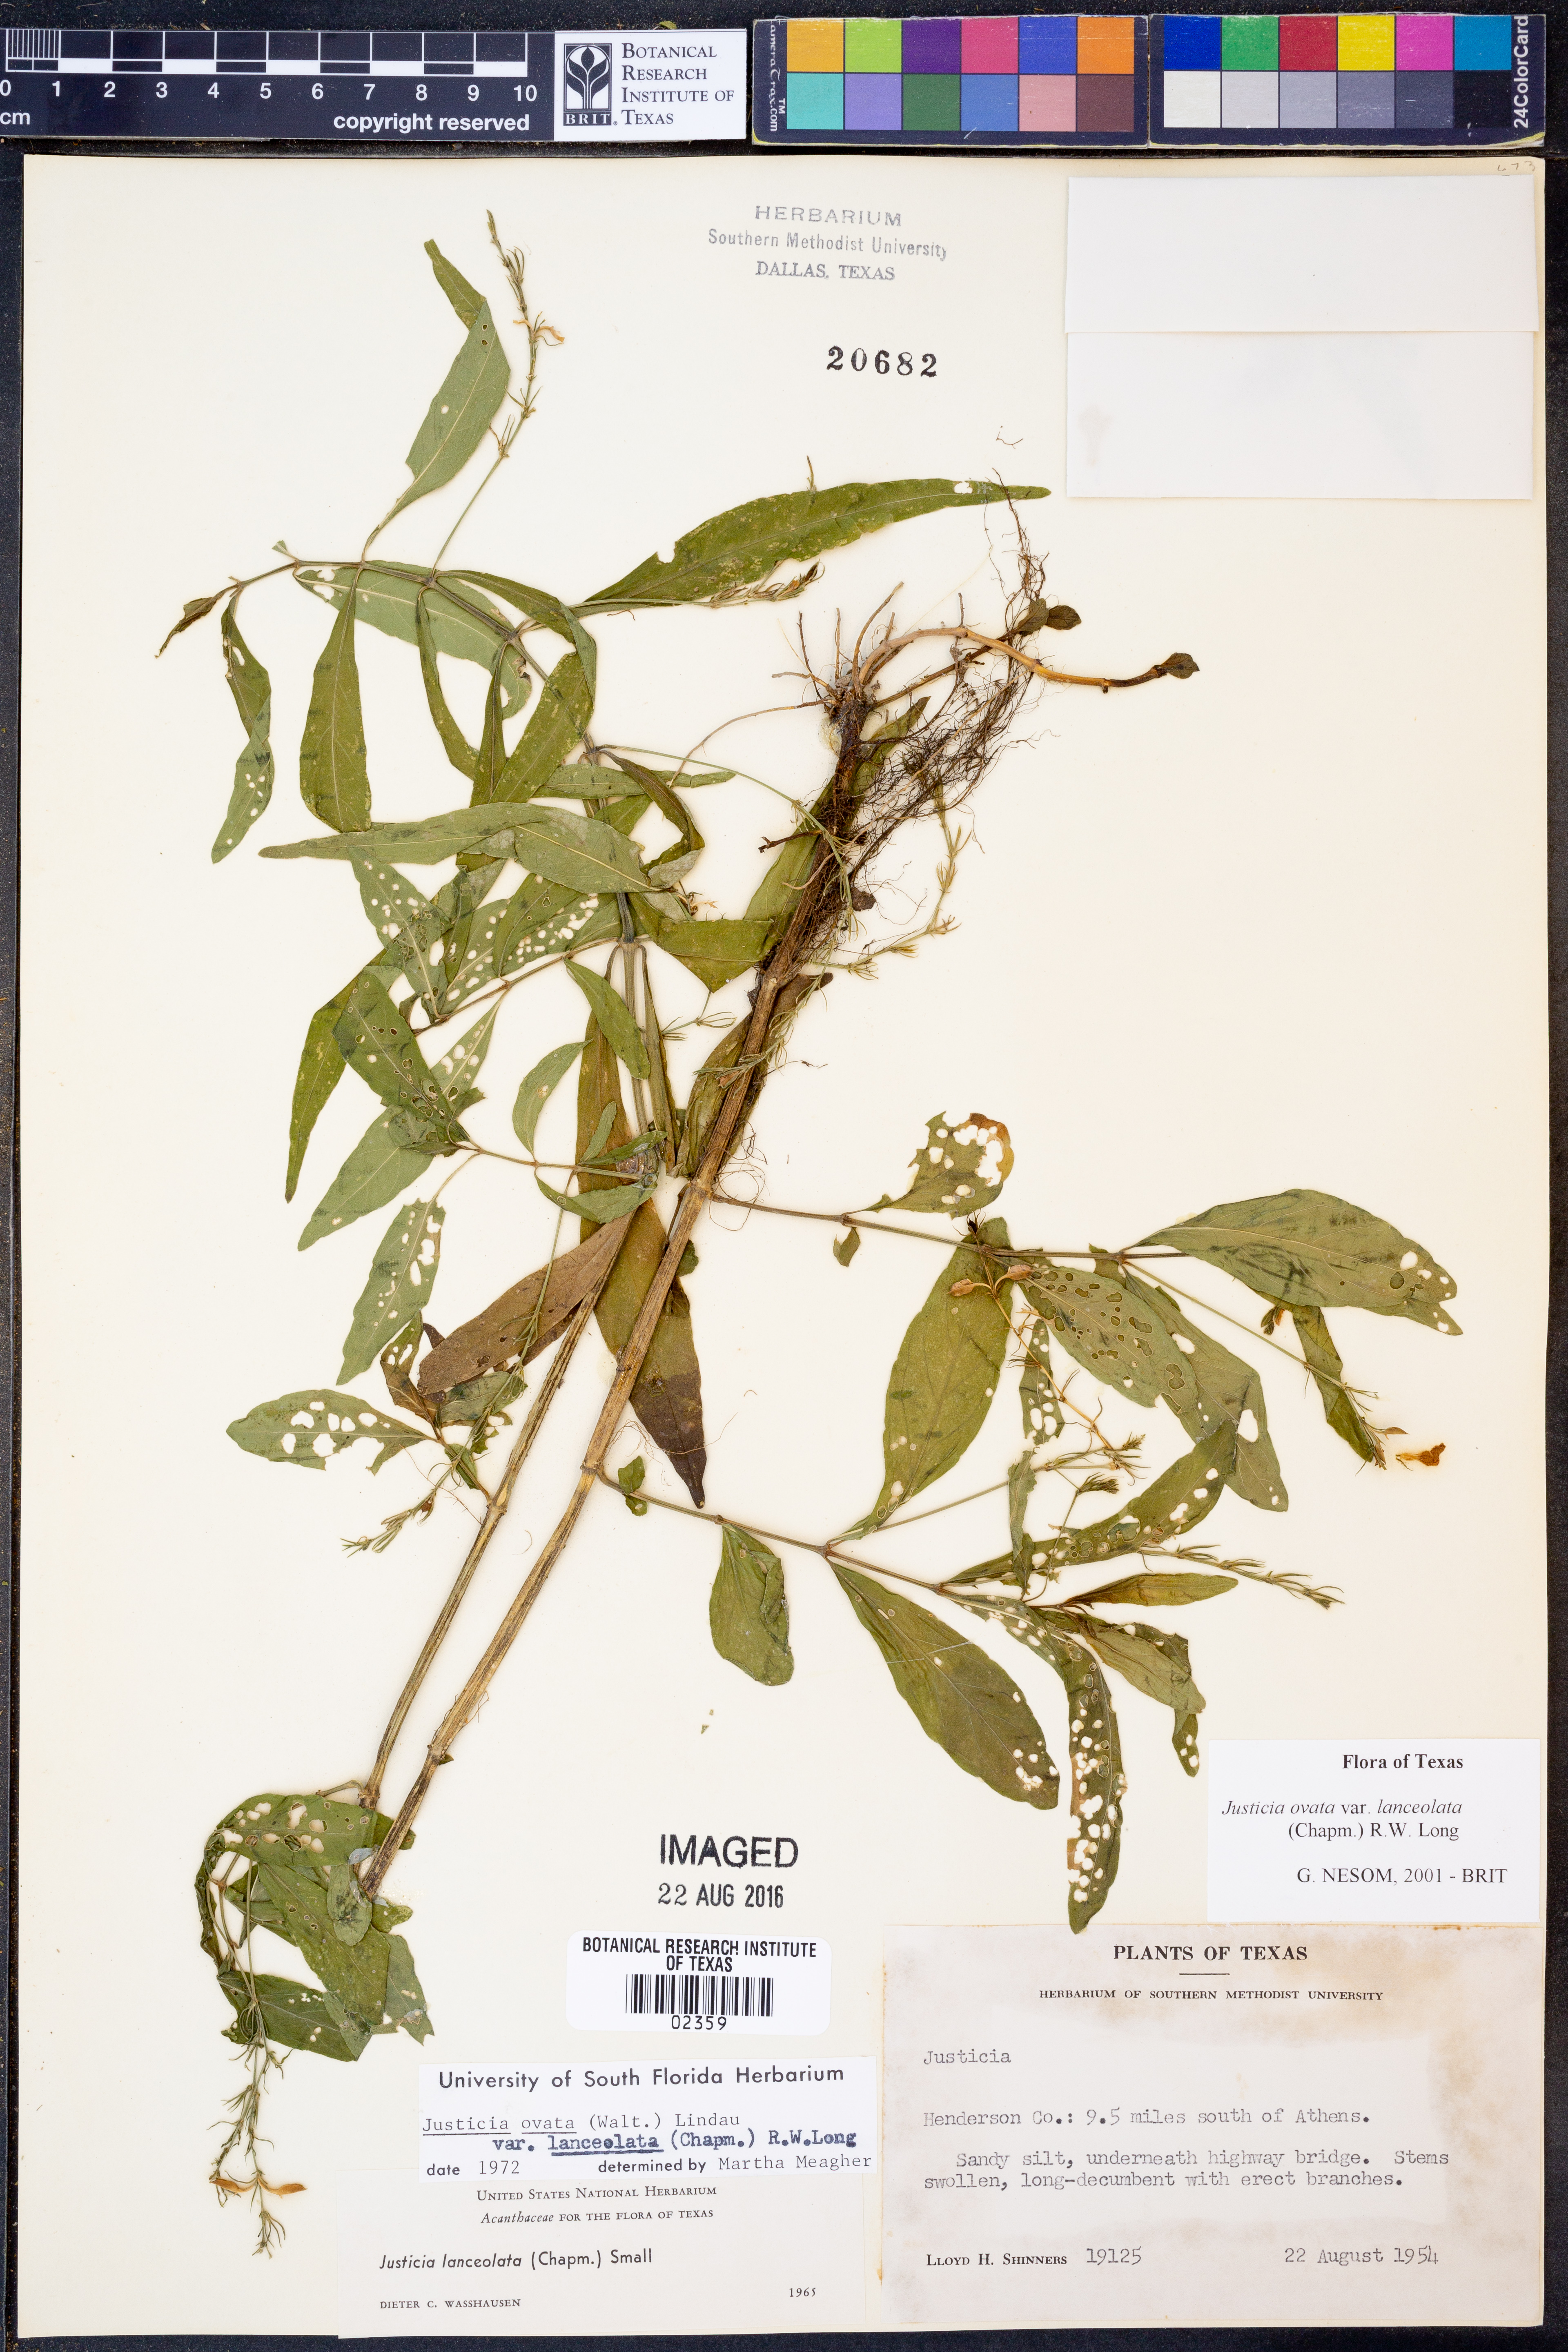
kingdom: Plantae
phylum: Tracheophyta
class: Magnoliopsida
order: Lamiales
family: Acanthaceae
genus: Justicia
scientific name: Justicia lanceolata
